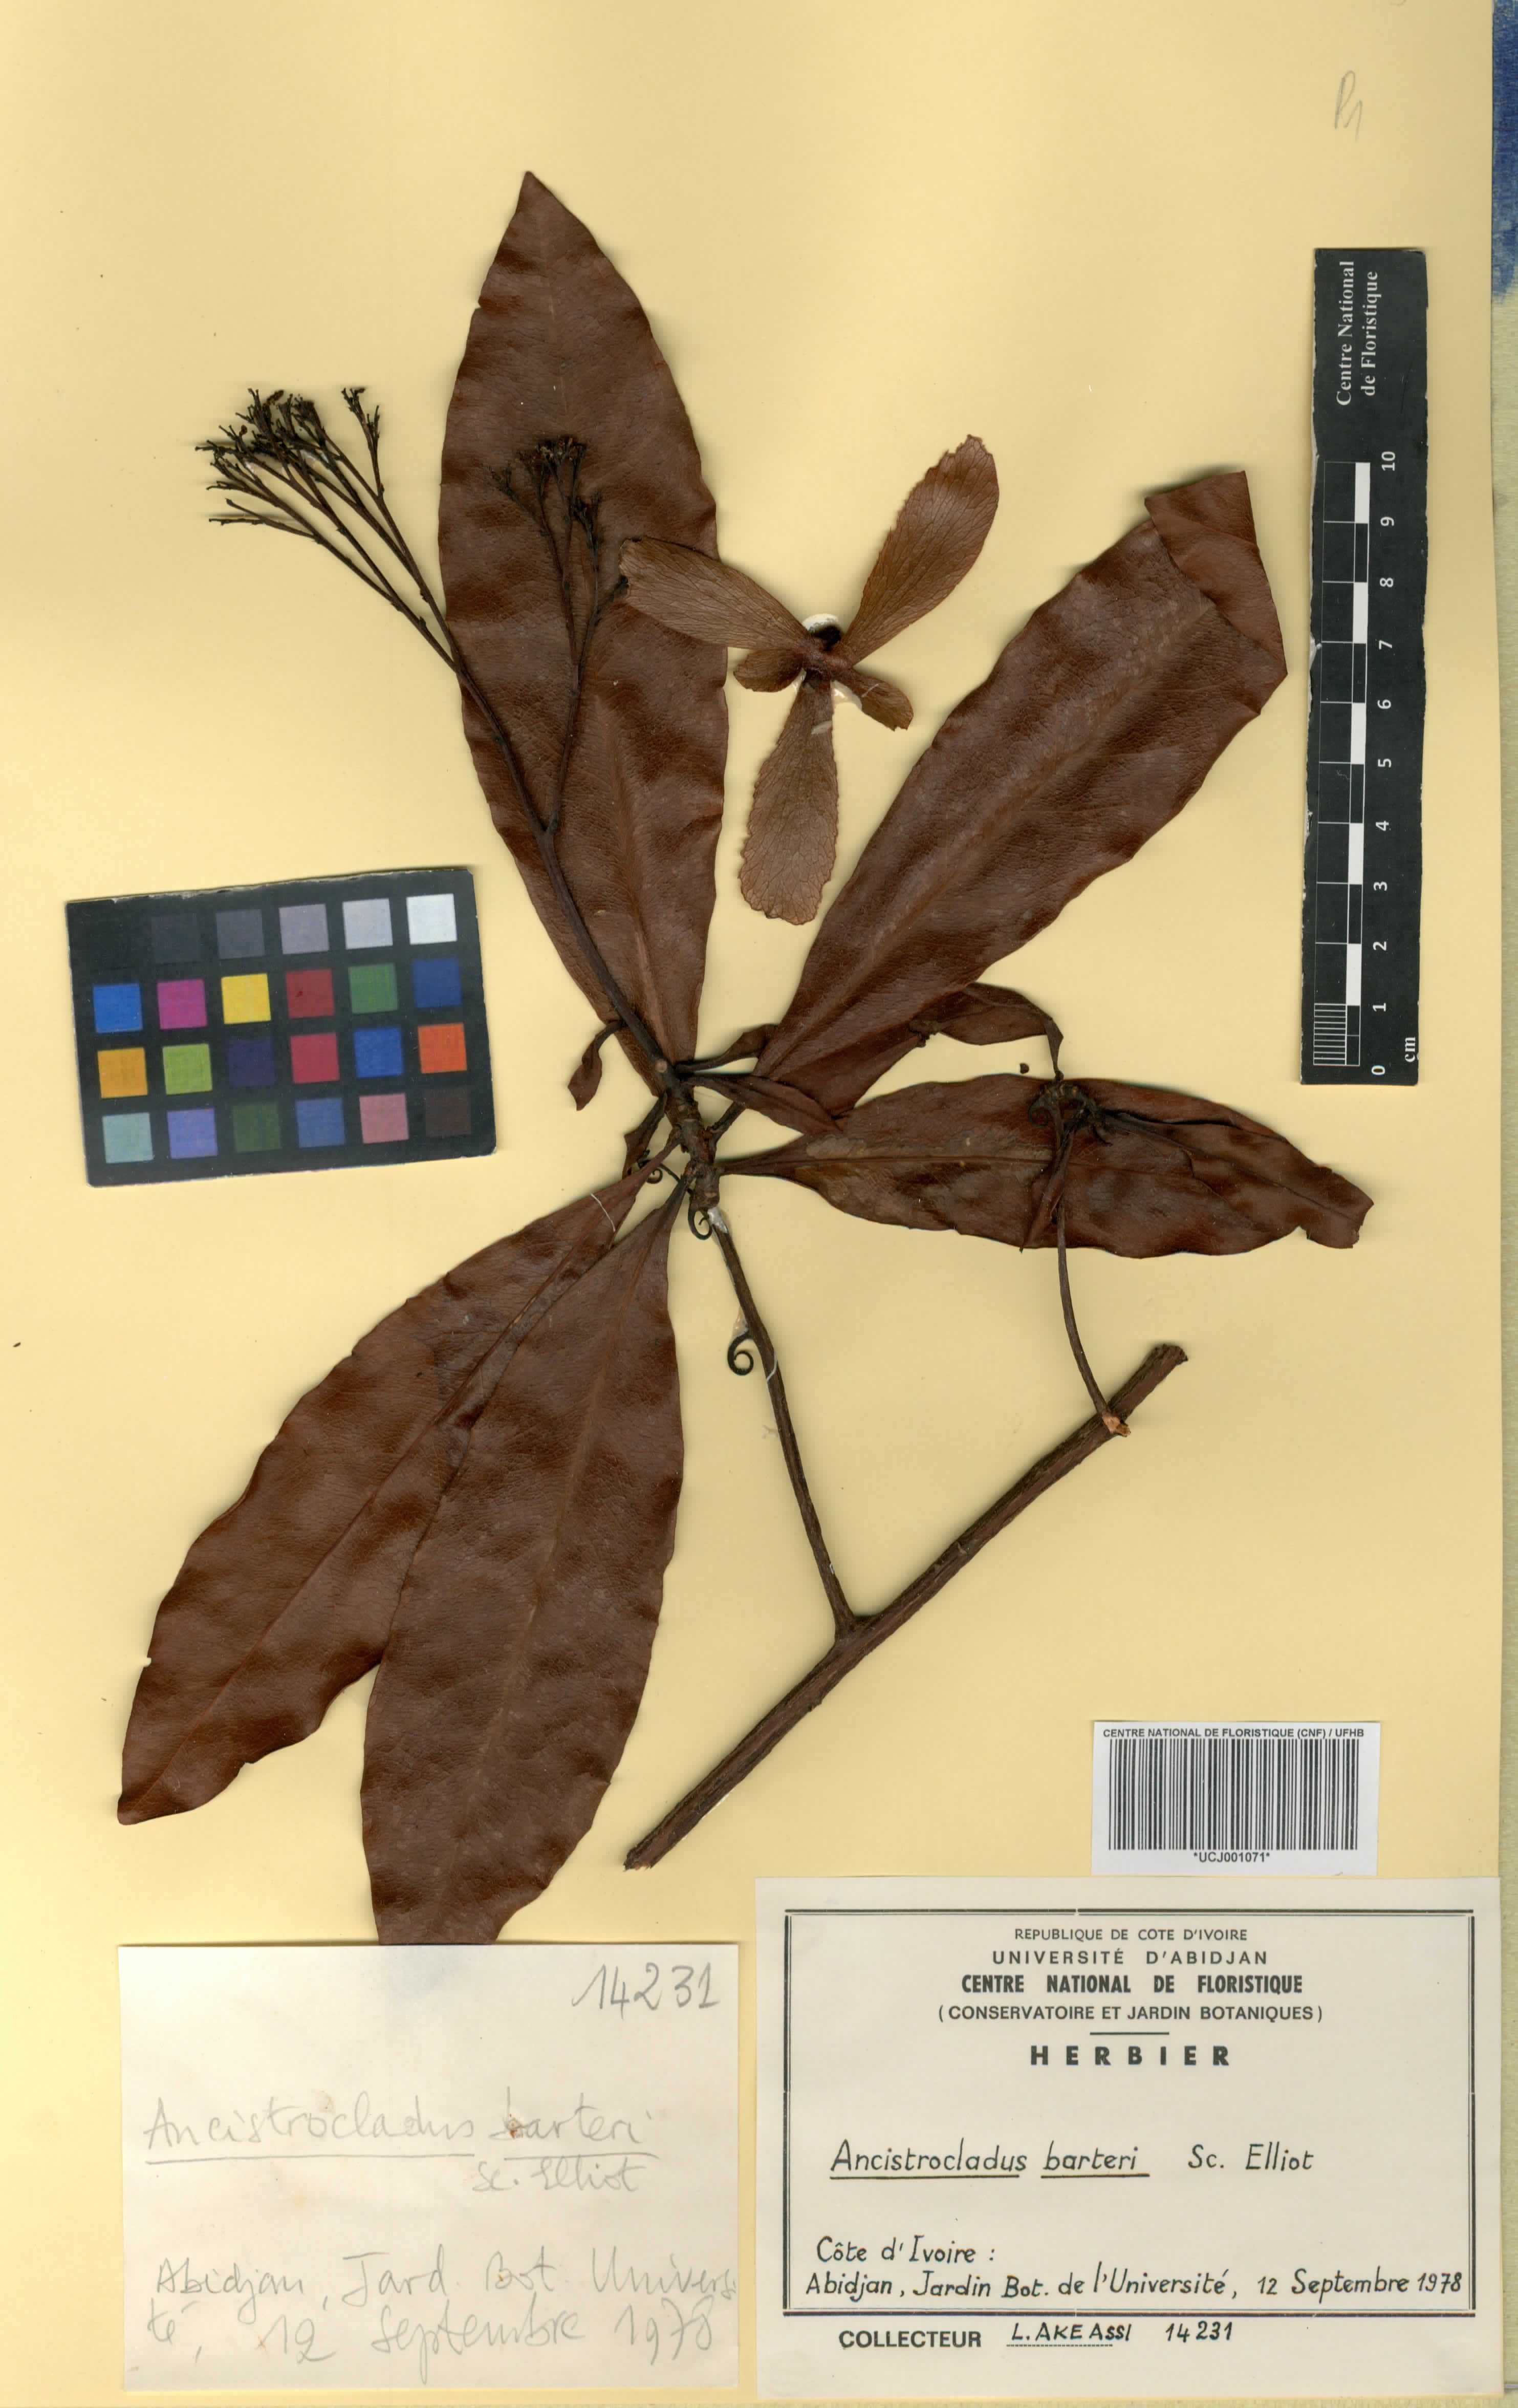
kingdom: Plantae
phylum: Tracheophyta
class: Magnoliopsida
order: Caryophyllales
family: Ancistrocladaceae
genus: Ancistrocladus
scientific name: Ancistrocladus barteri
